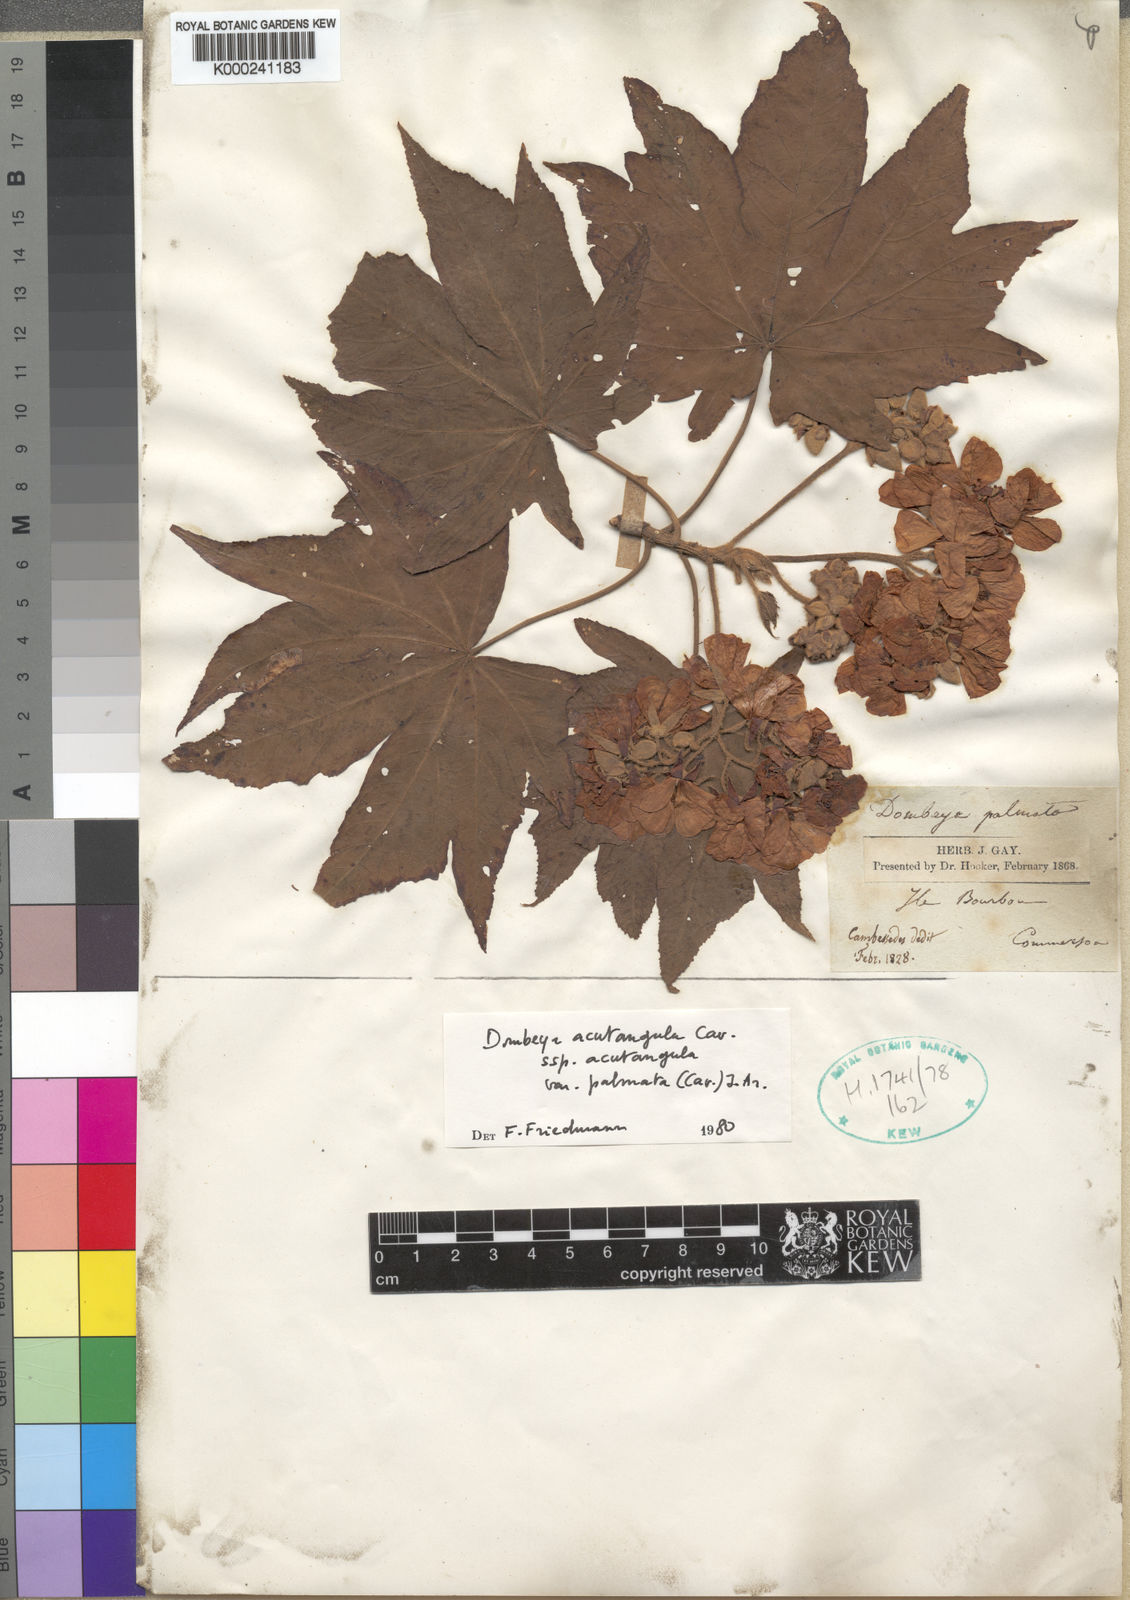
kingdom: Plantae
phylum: Tracheophyta
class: Magnoliopsida
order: Malvales
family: Malvaceae
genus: Dombeya
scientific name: Dombeya acutangula
